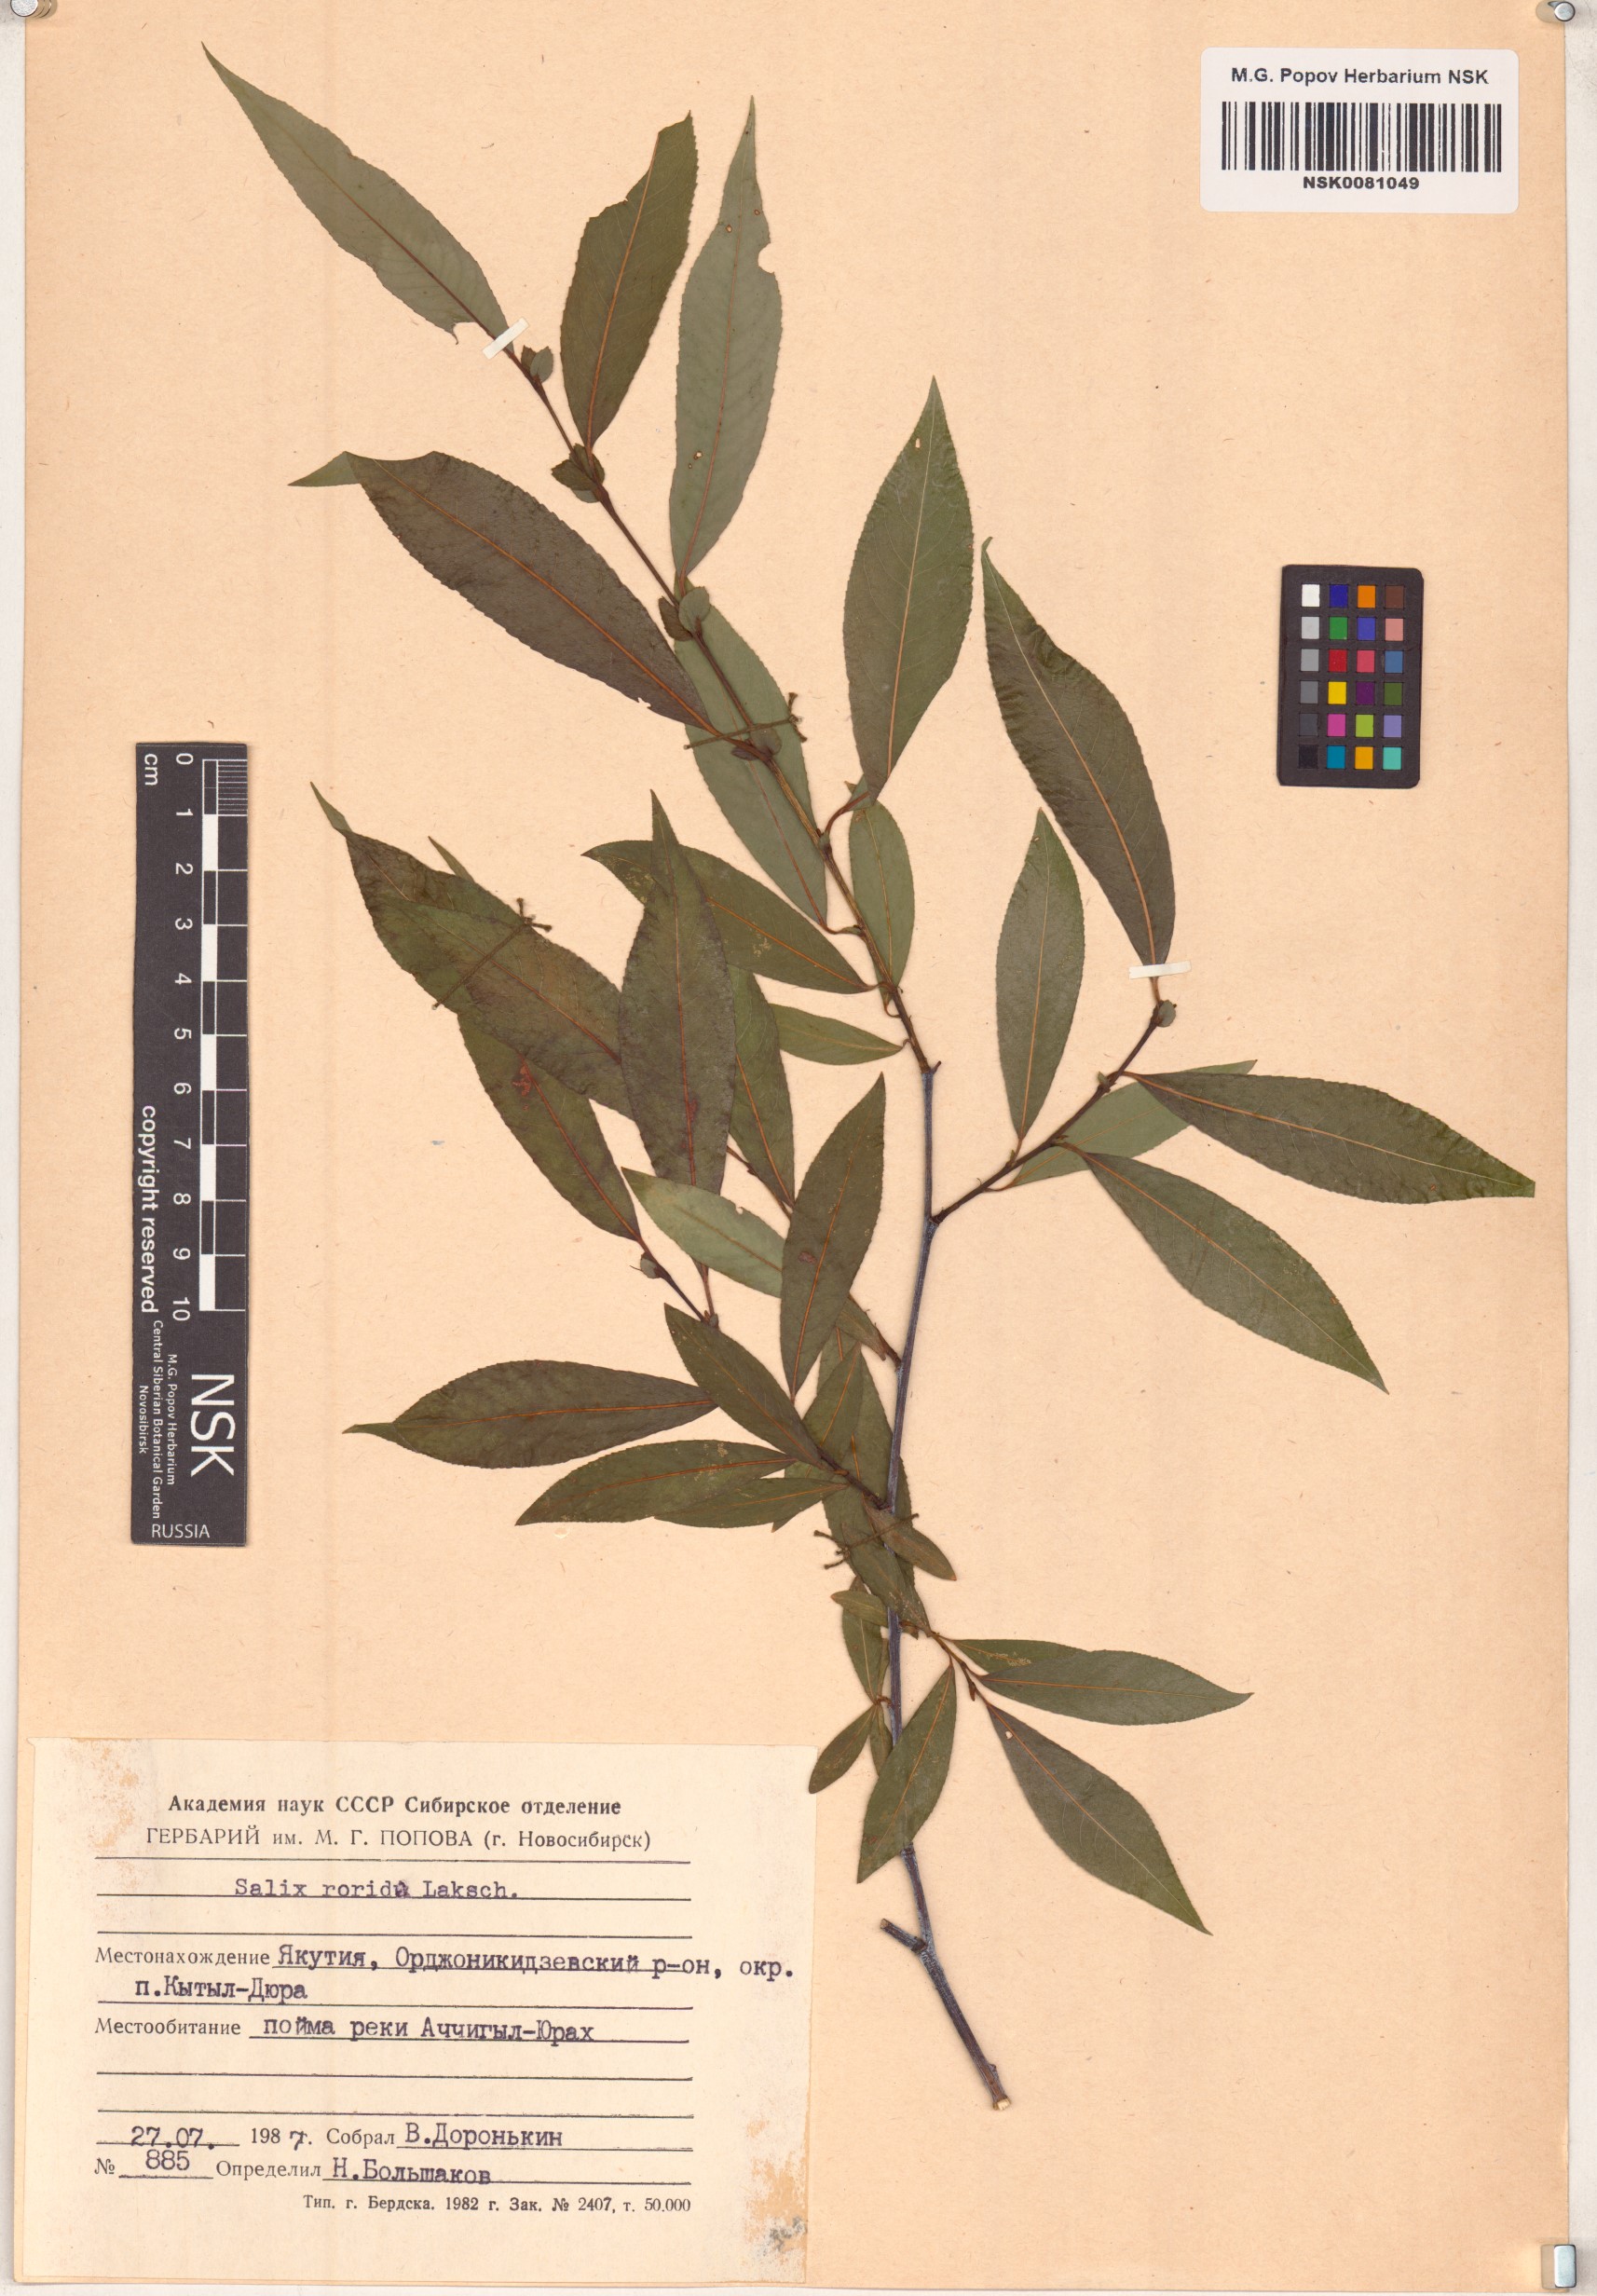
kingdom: Plantae
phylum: Tracheophyta
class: Magnoliopsida
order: Malpighiales
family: Salicaceae
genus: Salix
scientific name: Salix rorida
